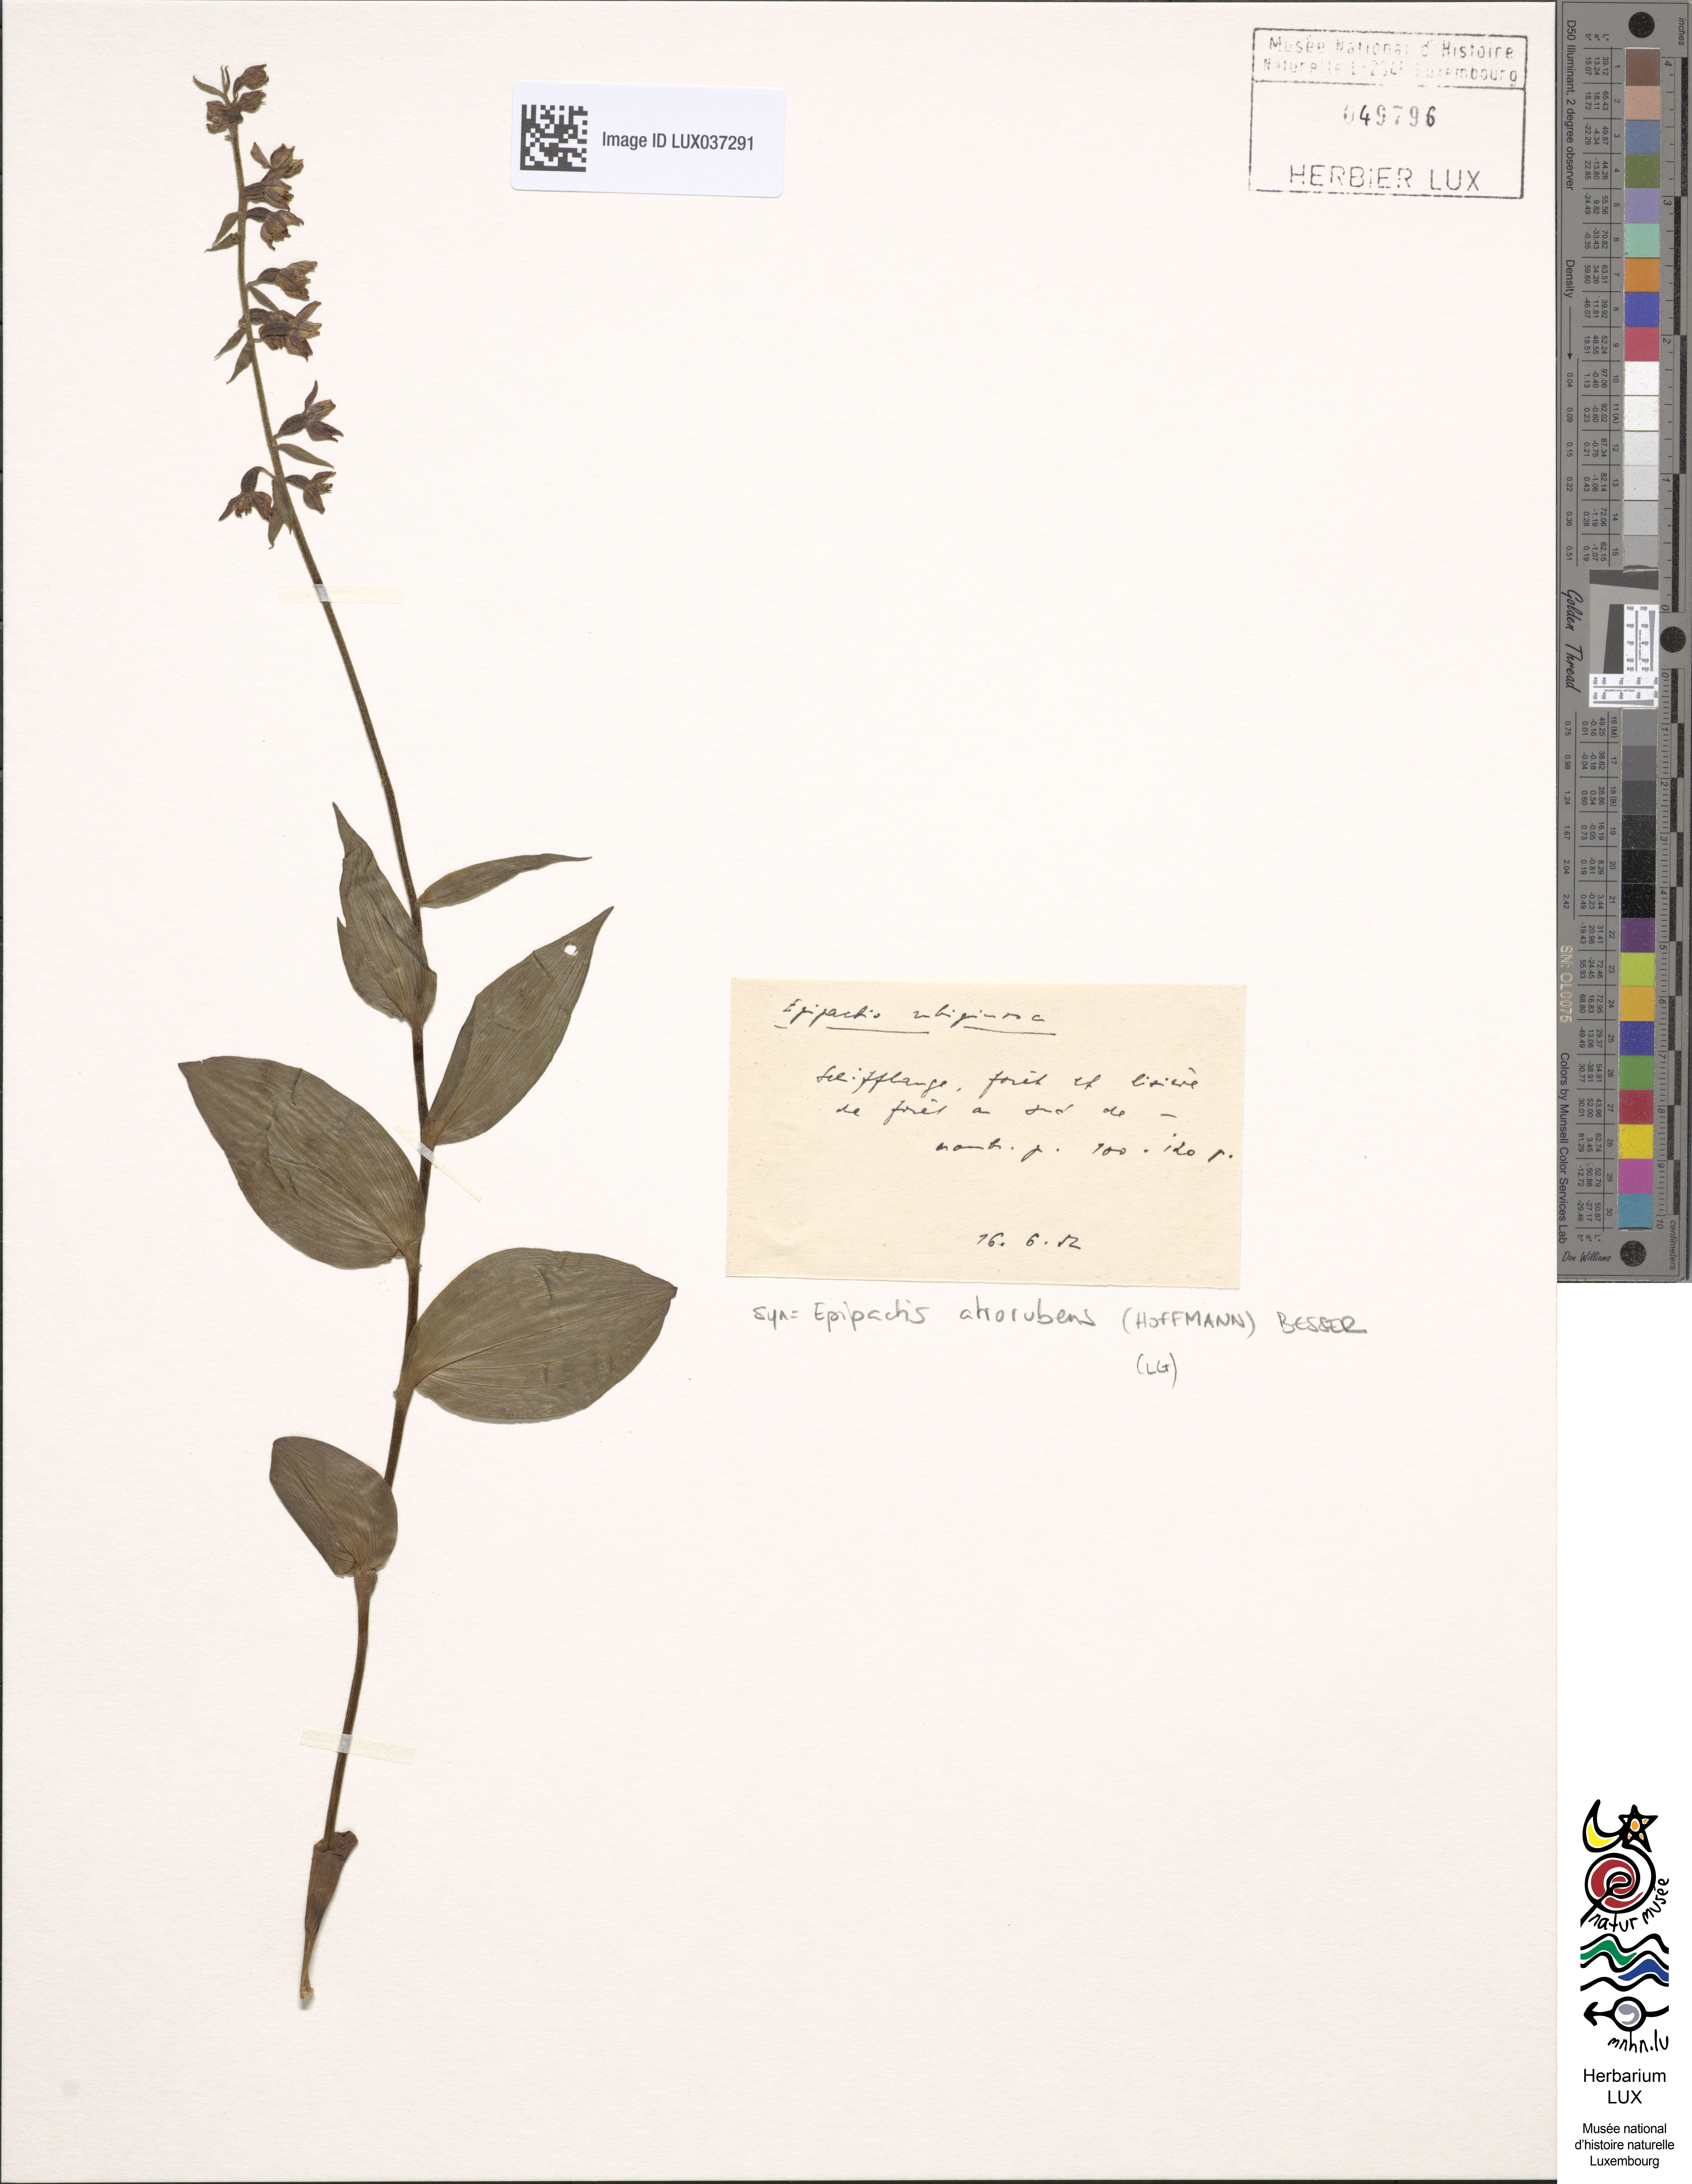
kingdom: Plantae
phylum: Tracheophyta
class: Liliopsida
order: Asparagales
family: Orchidaceae
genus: Epipactis
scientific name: Epipactis atrorubens
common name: Dark-red helleborine
